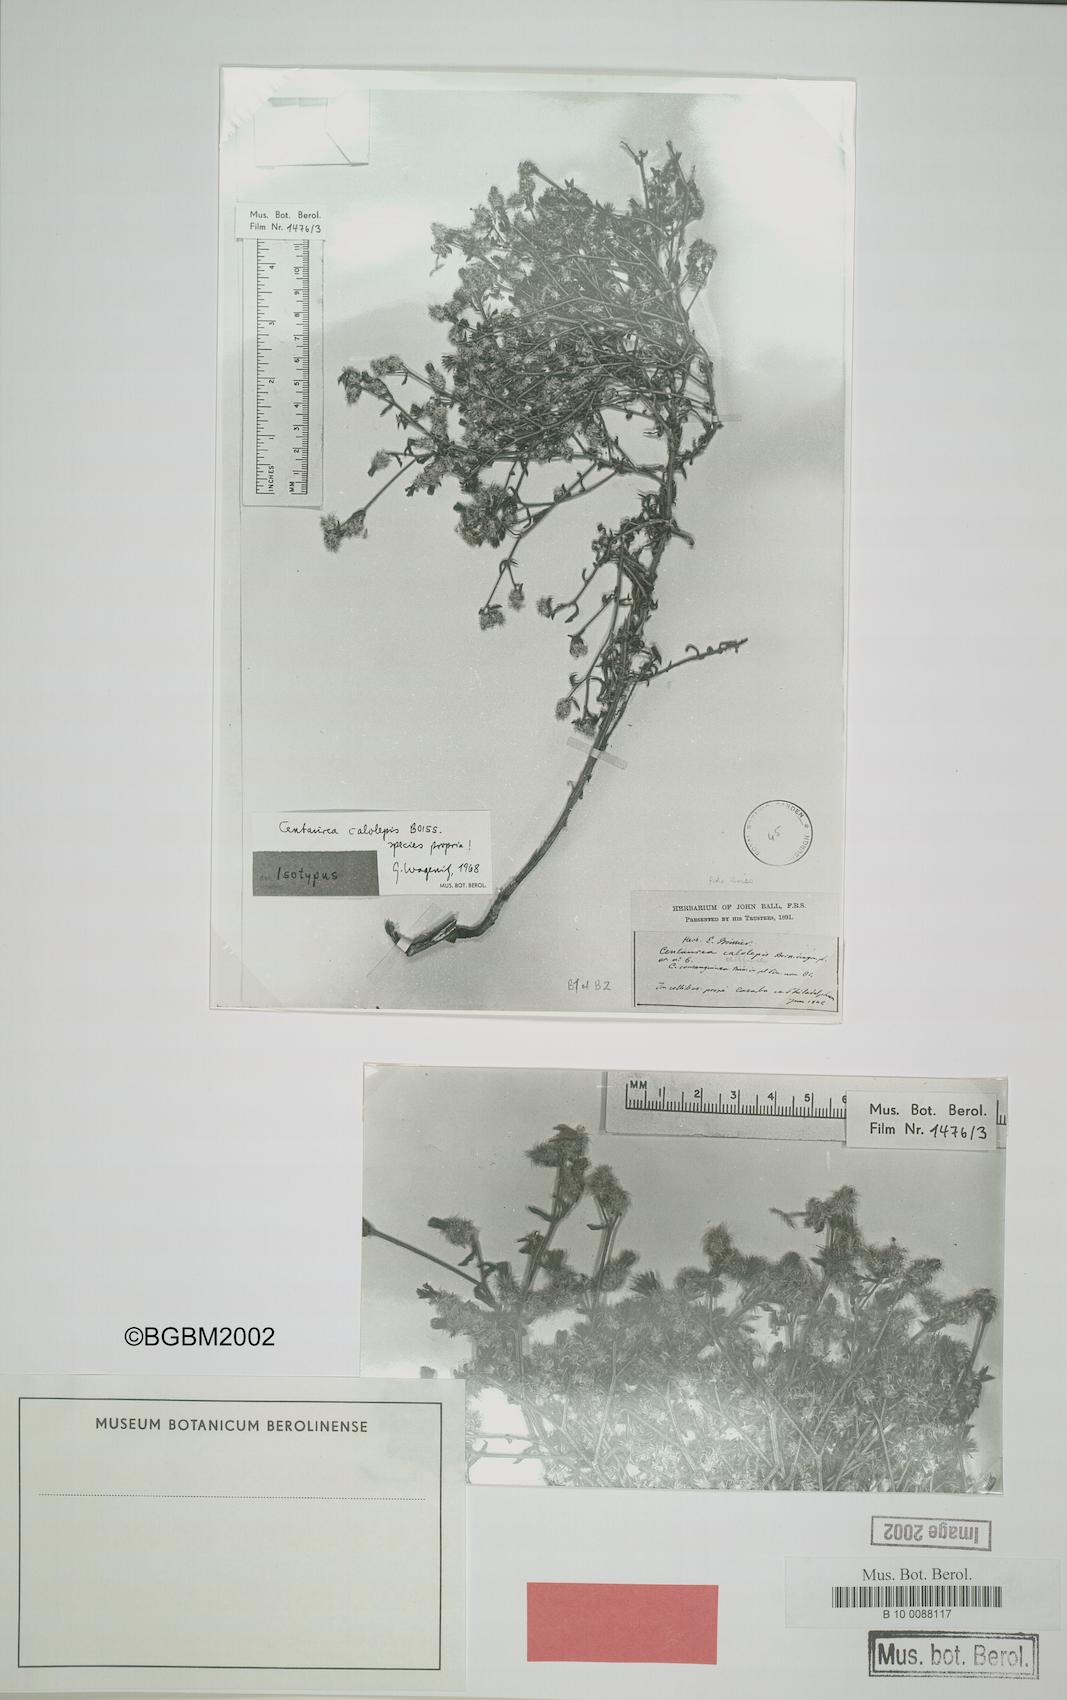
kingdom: Plantae
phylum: Tracheophyta
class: Magnoliopsida
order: Asterales
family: Asteraceae
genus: Centaurea
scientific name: Centaurea calolepis
